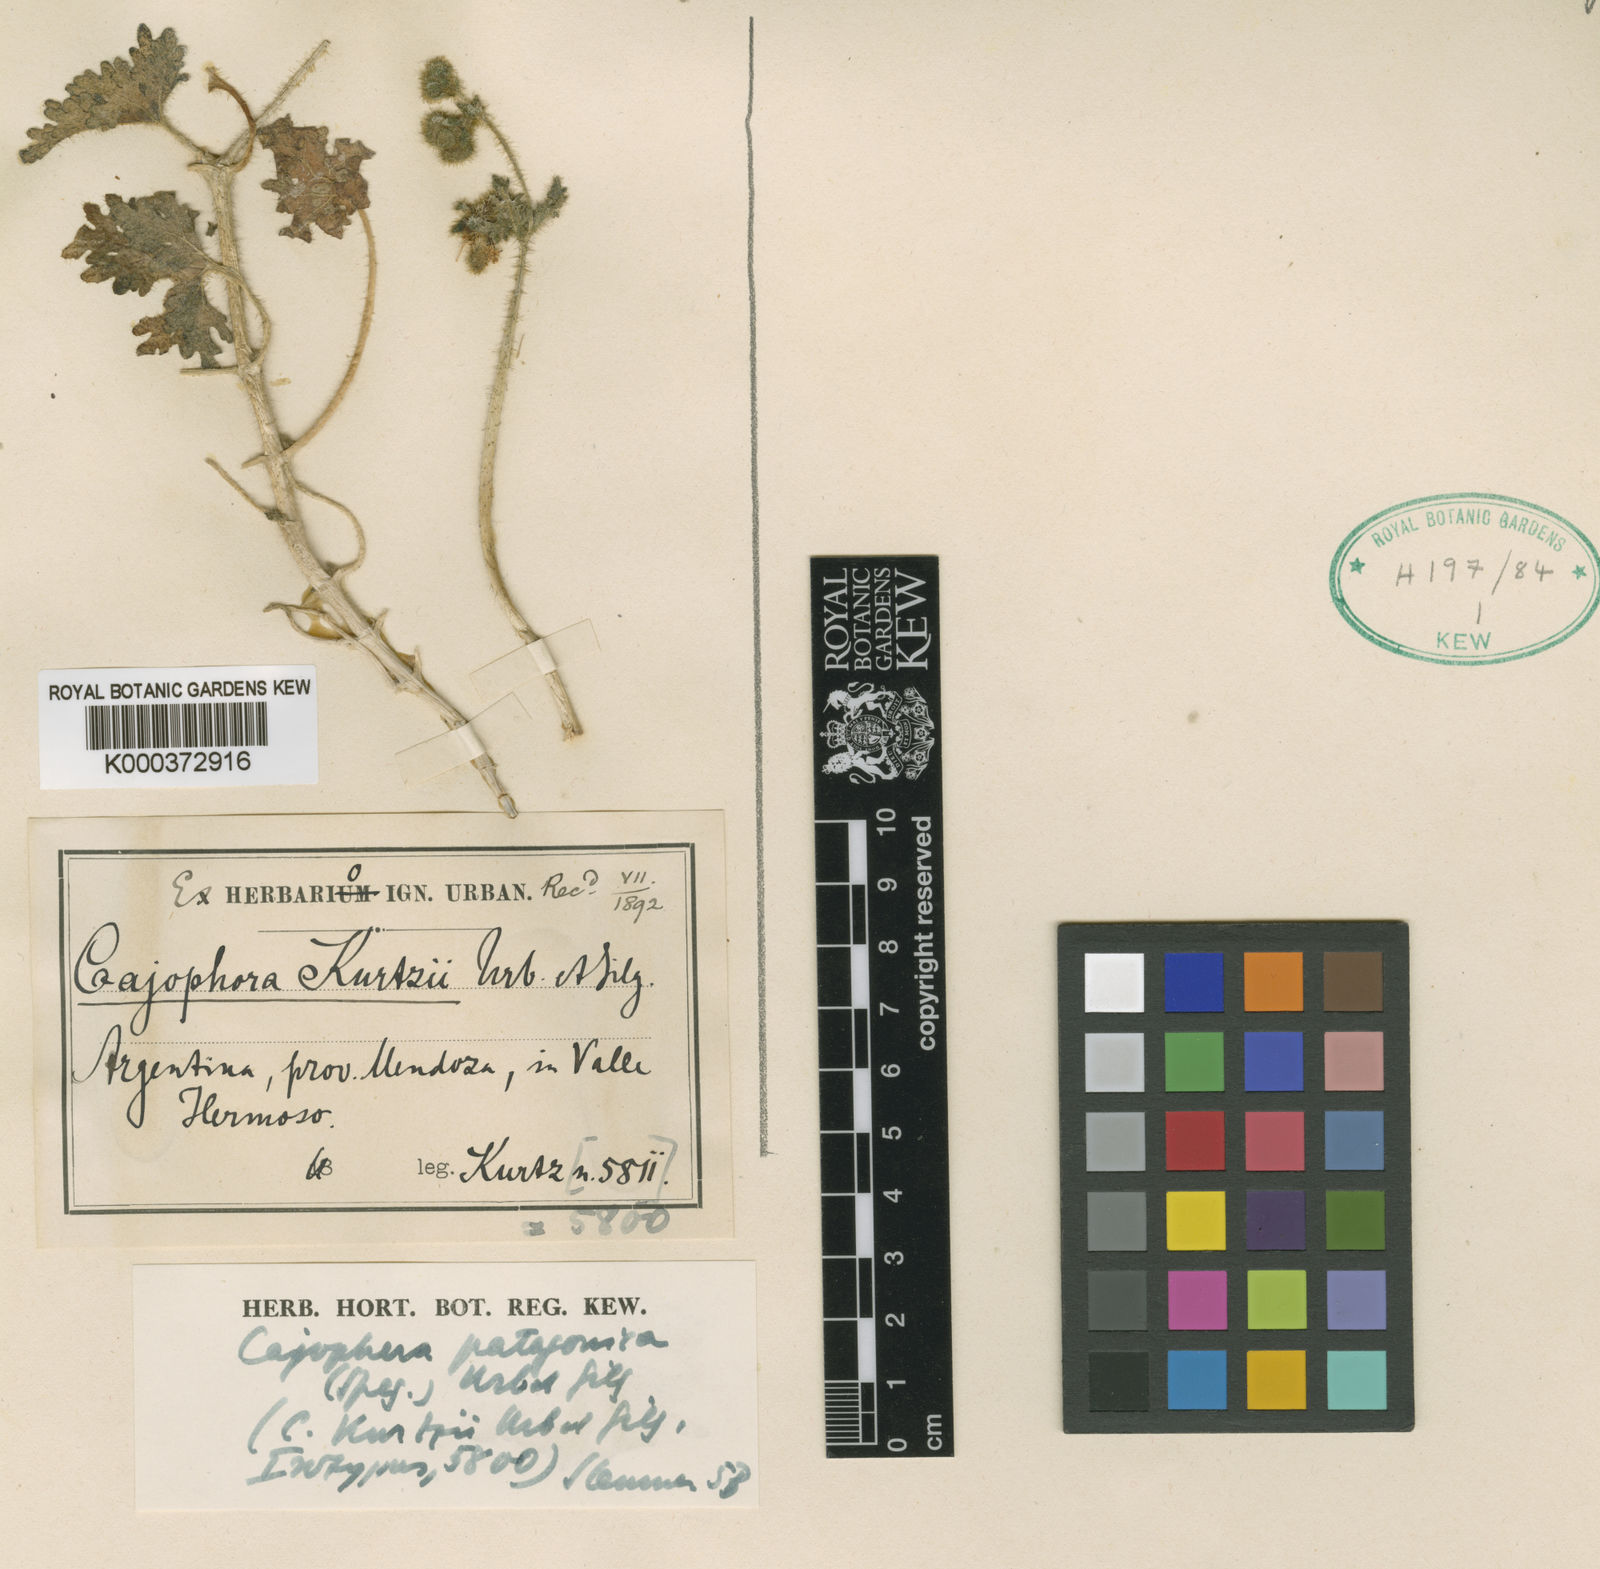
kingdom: Plantae
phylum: Tracheophyta
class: Magnoliopsida
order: Cornales
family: Loasaceae
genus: Blumenbachia
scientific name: Blumenbachia dissecta
